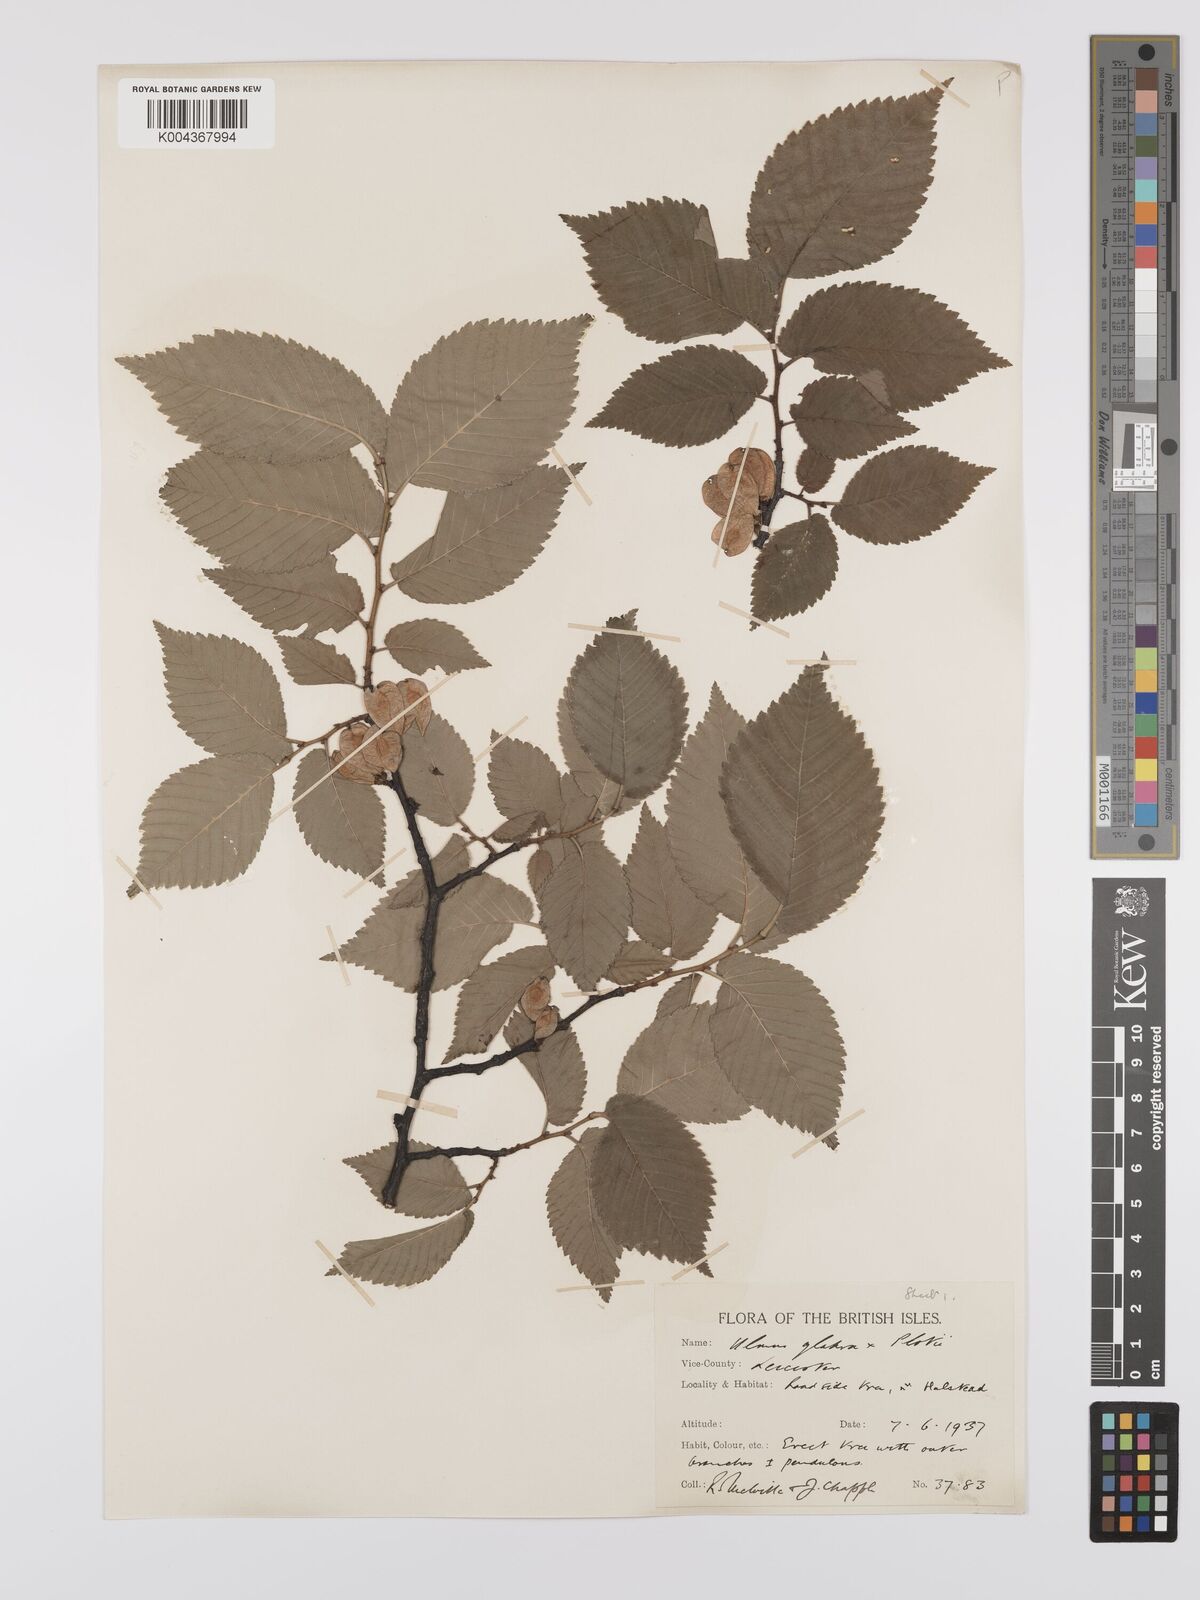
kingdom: Plantae
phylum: Tracheophyta
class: Magnoliopsida
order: Rosales
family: Ulmaceae
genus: Ulmus
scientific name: Ulmus
